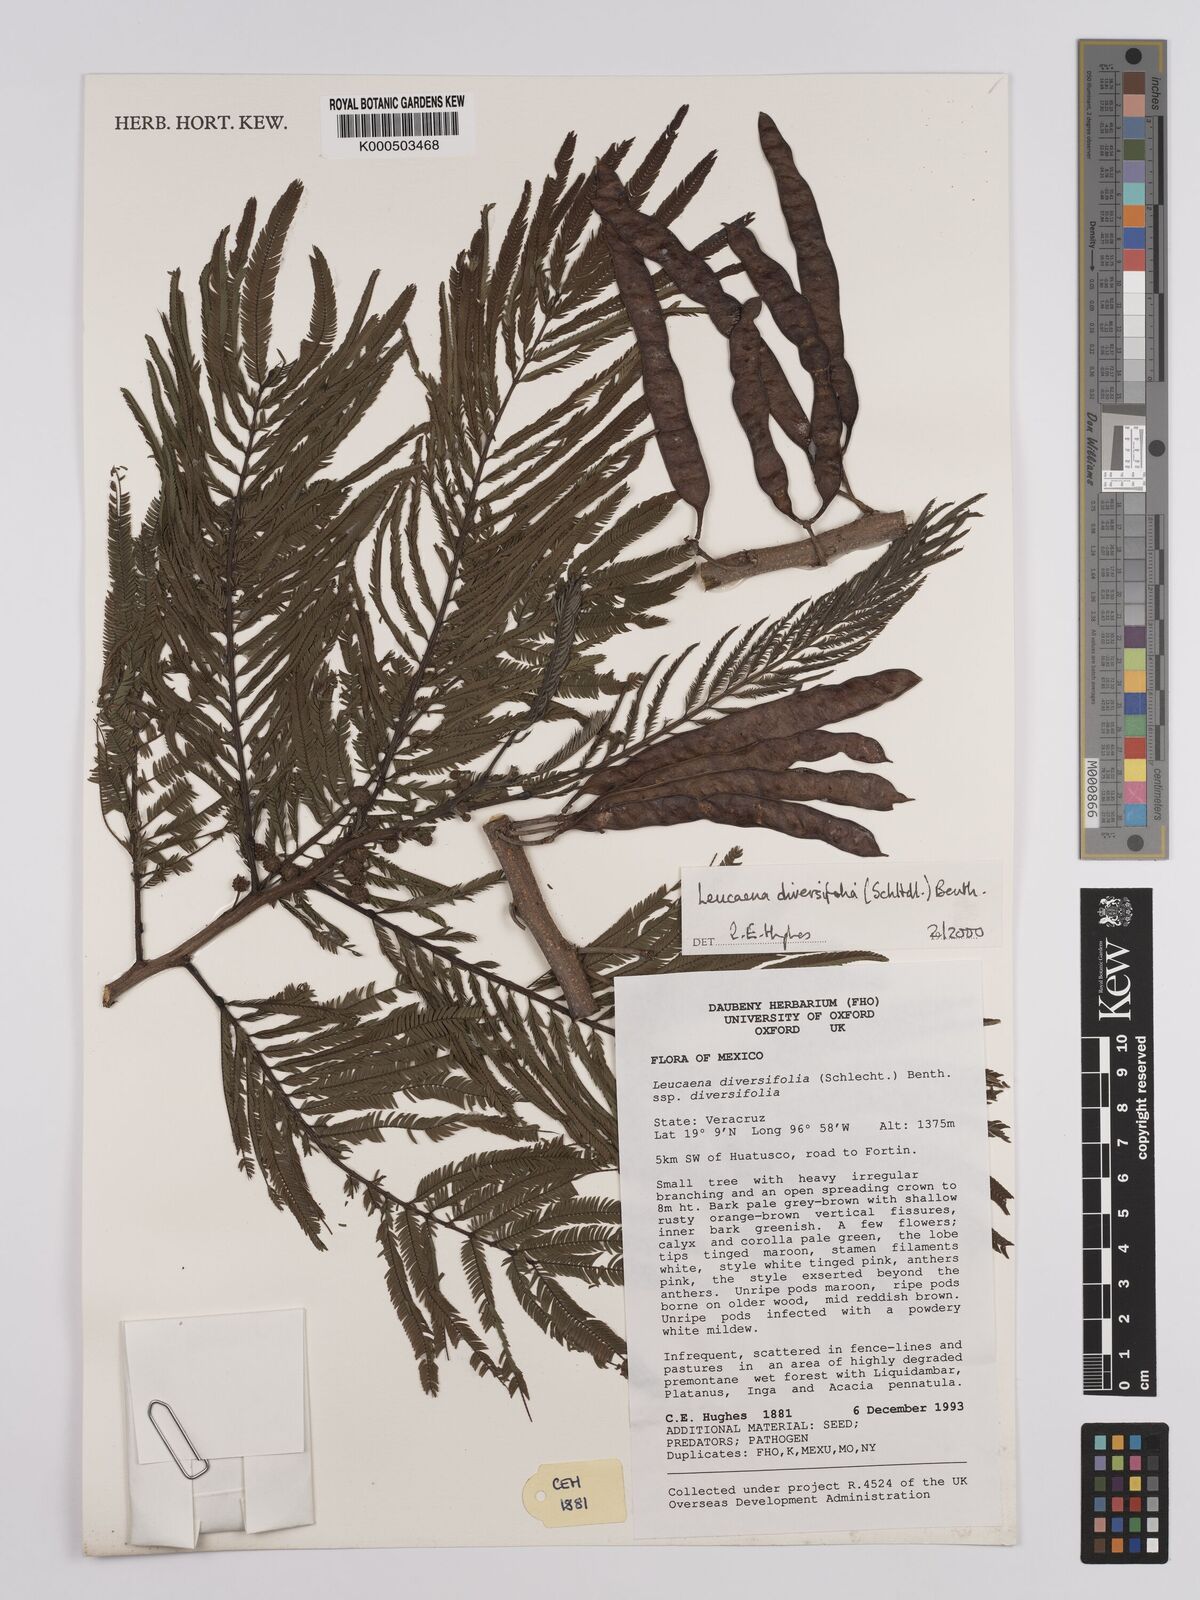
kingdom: Plantae
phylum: Tracheophyta
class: Magnoliopsida
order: Fabales
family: Fabaceae
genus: Leucaena
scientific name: Leucaena diversifolia
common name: Red leucaena
